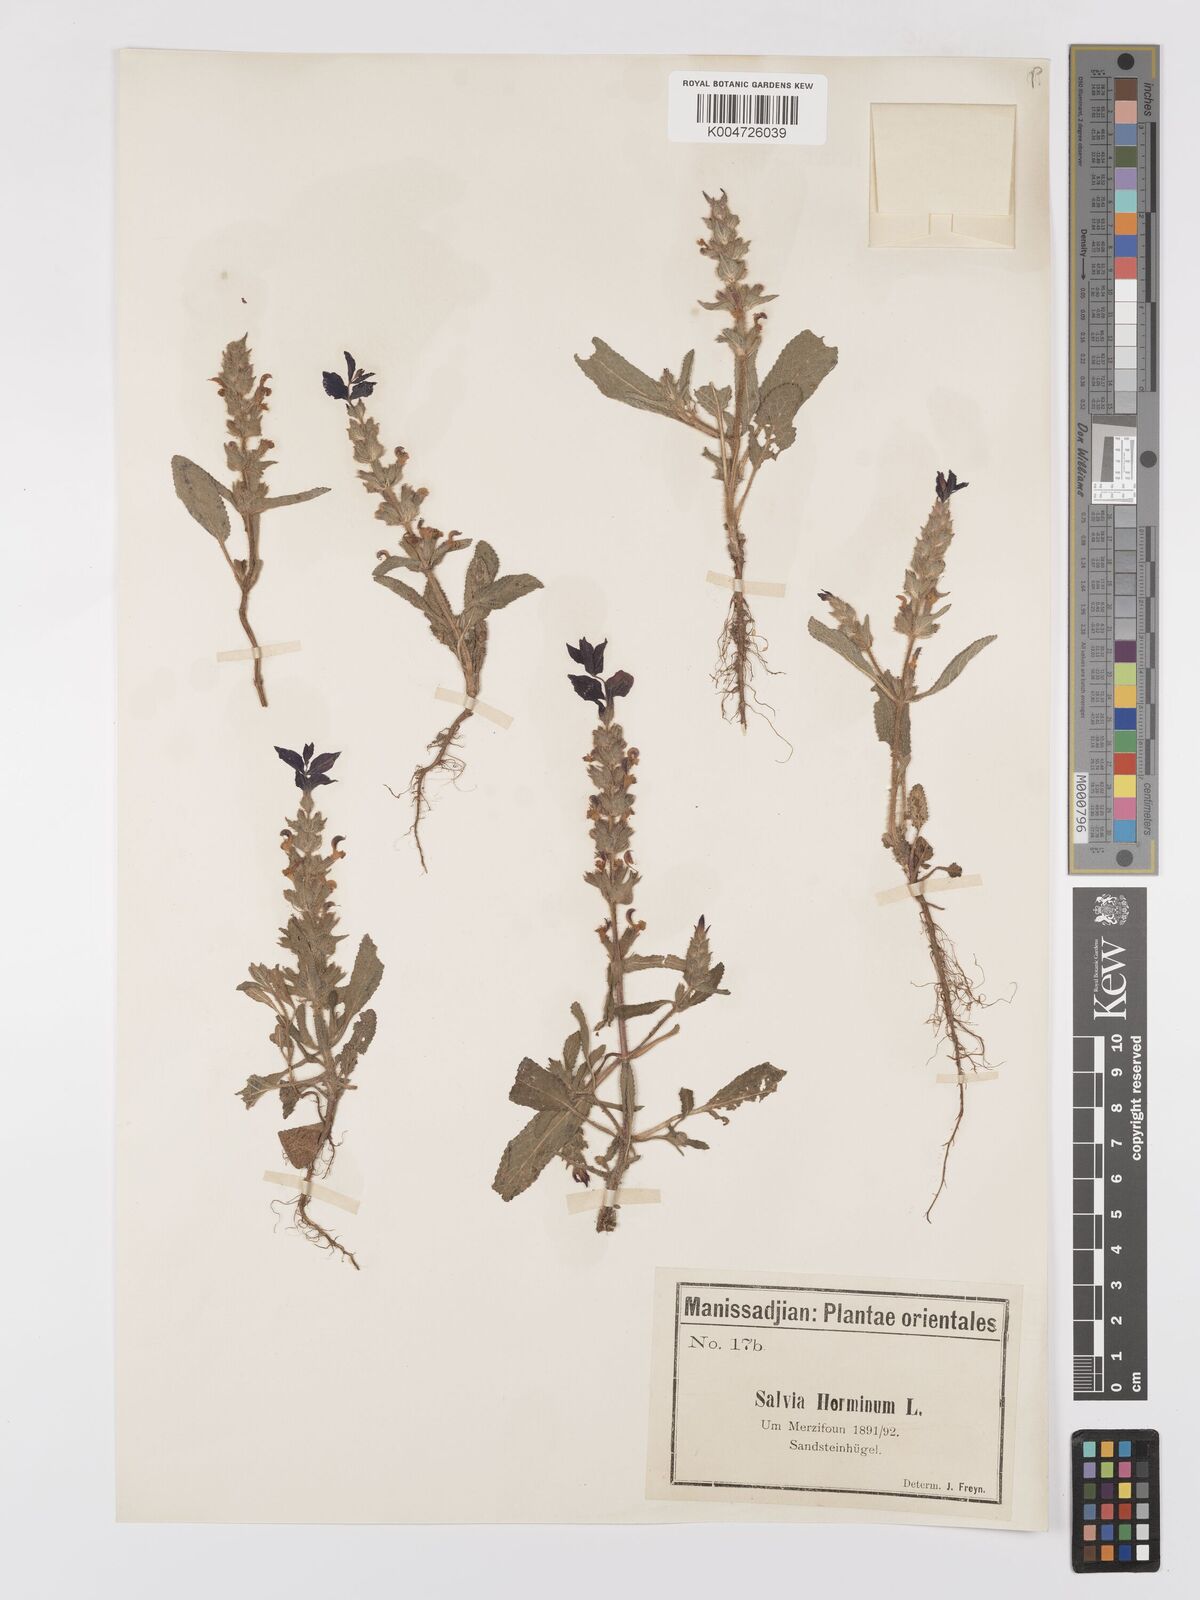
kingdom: Plantae
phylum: Tracheophyta
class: Magnoliopsida
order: Lamiales
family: Lamiaceae
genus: Salvia
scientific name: Salvia viridis
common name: Annual clary
